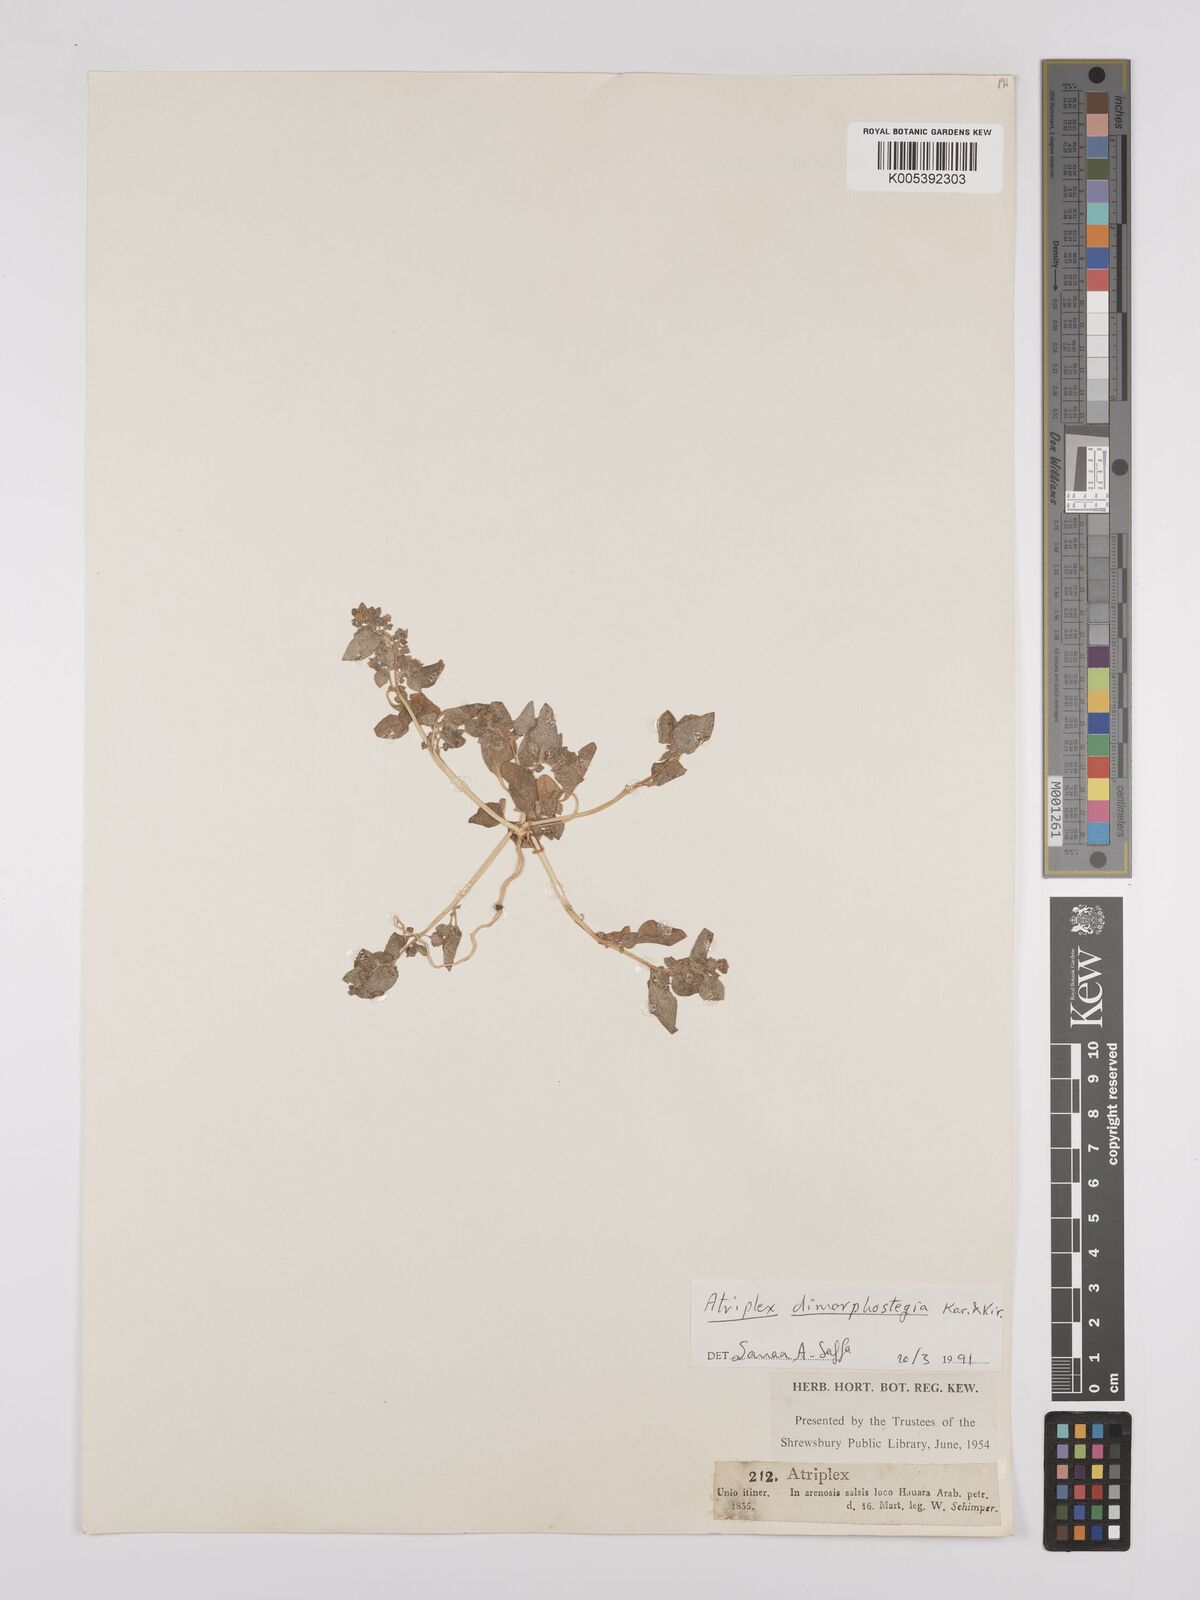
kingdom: Plantae
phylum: Tracheophyta
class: Magnoliopsida
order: Caryophyllales
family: Amaranthaceae
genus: Atriplex
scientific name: Atriplex
